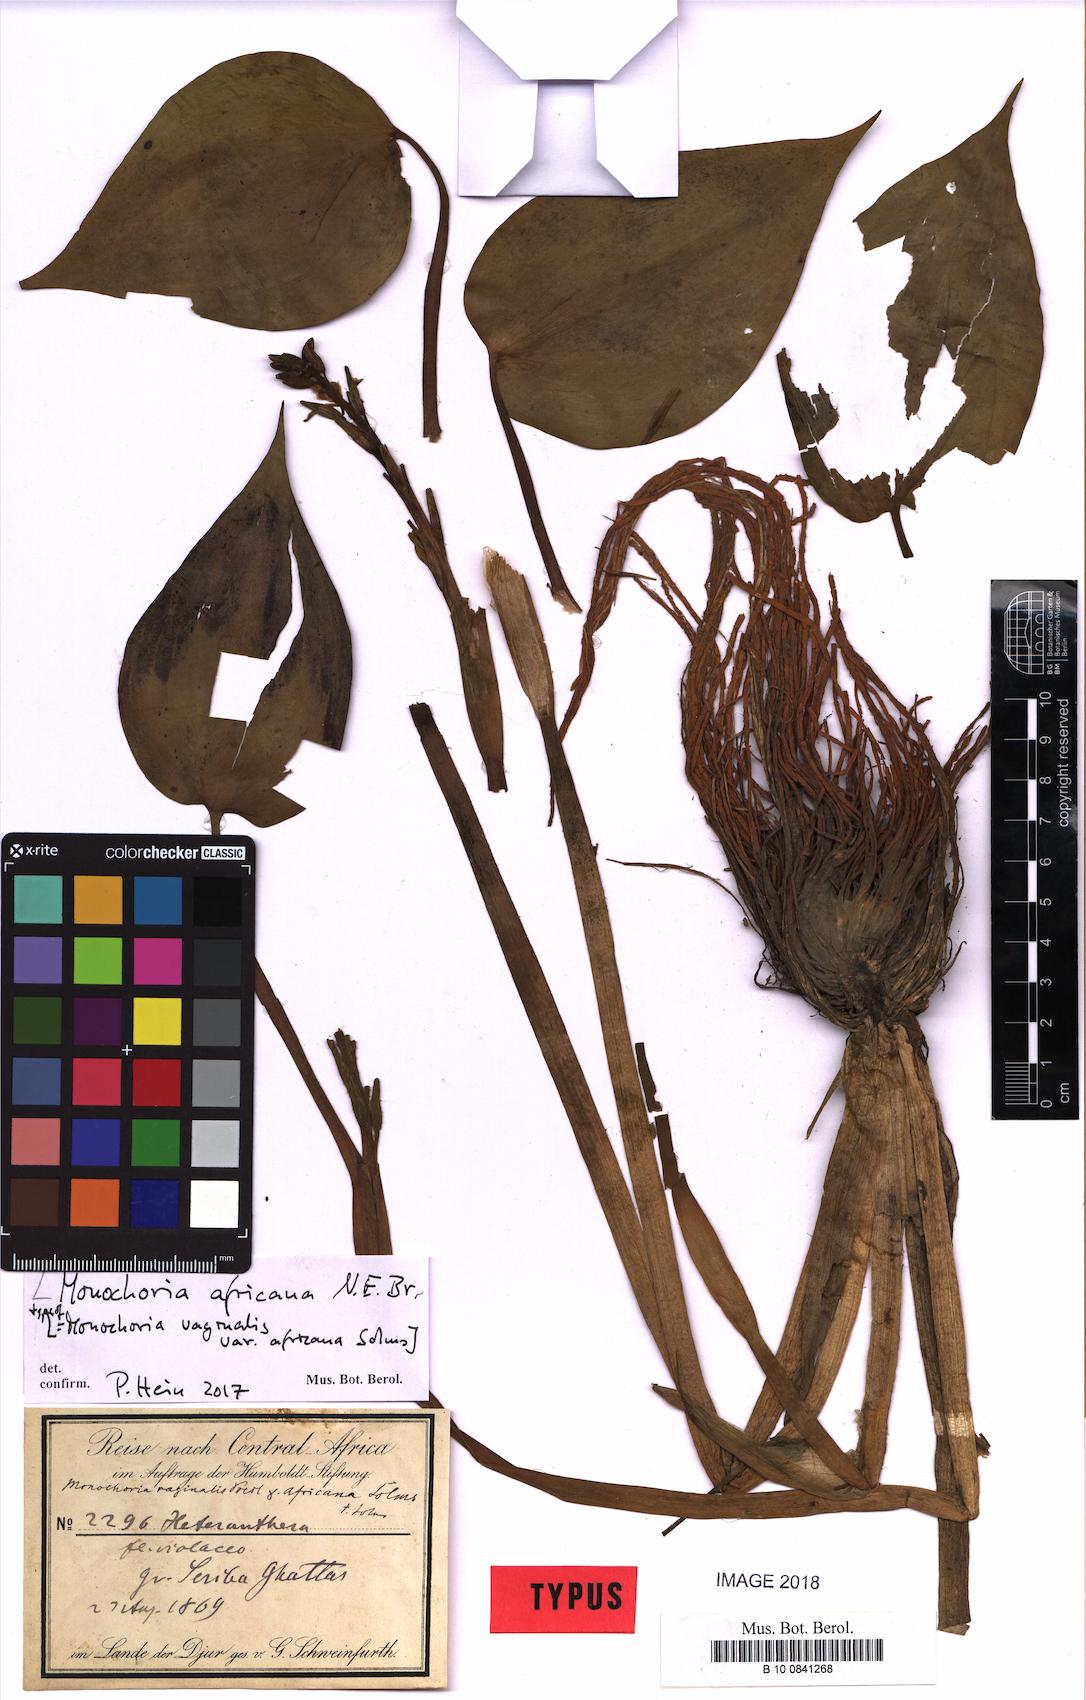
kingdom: Plantae
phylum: Tracheophyta
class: Liliopsida
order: Commelinales
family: Pontederiaceae
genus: Pontederia
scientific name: Pontederia africana
